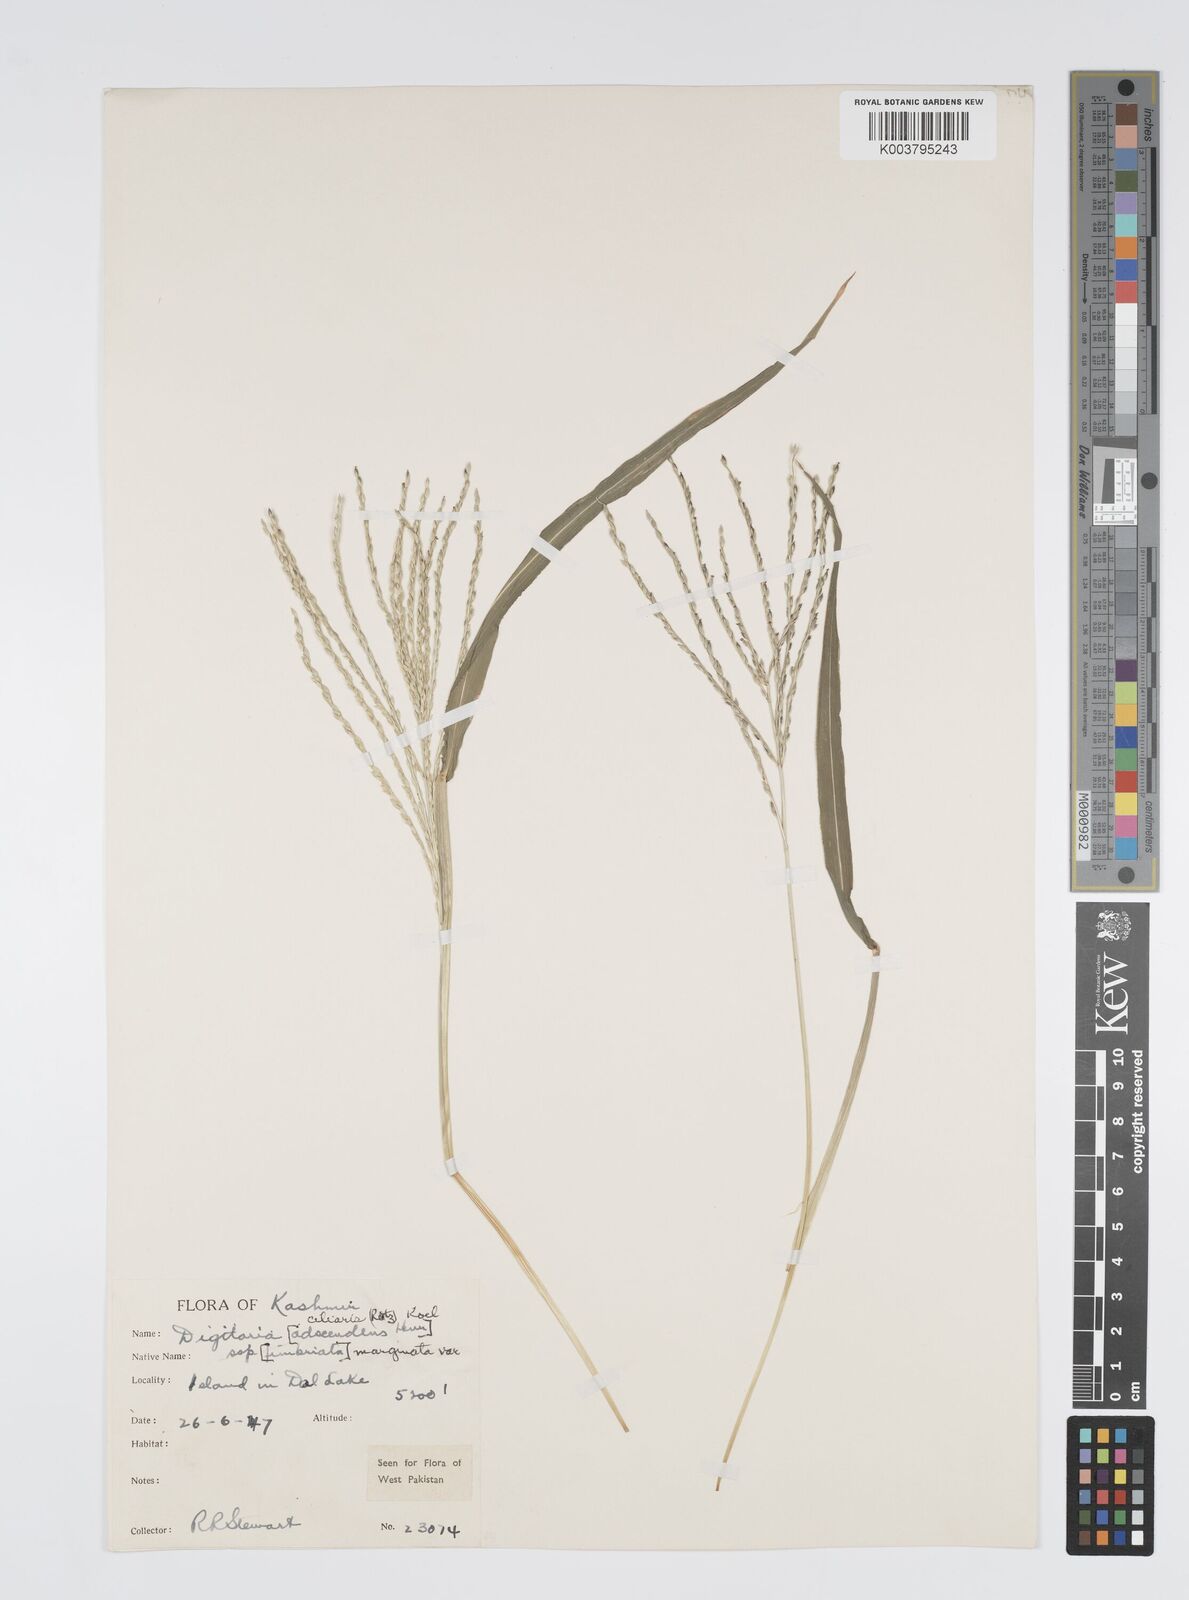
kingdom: Plantae
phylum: Tracheophyta
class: Liliopsida
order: Poales
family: Poaceae
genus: Digitaria
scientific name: Digitaria ciliaris
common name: Tropical finger-grass
